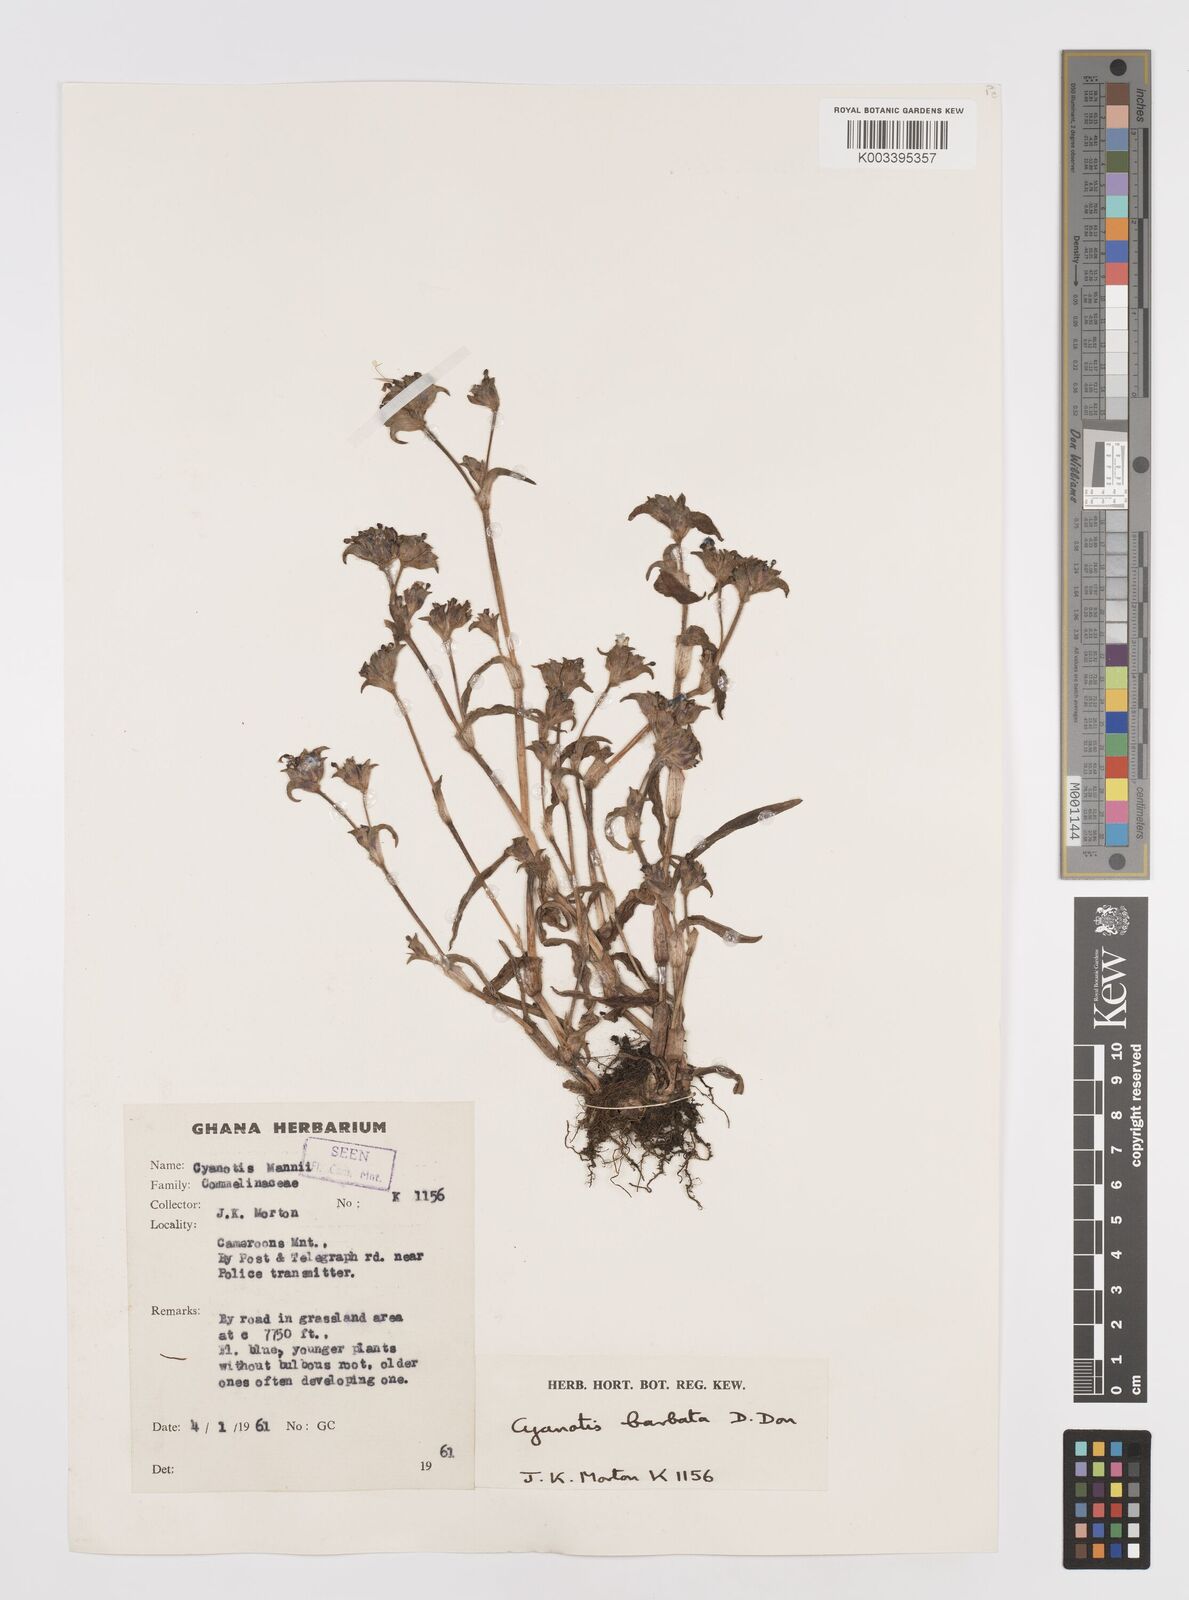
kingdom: Plantae
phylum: Tracheophyta
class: Liliopsida
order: Commelinales
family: Commelinaceae
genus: Cyanotis
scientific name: Cyanotis vaga
